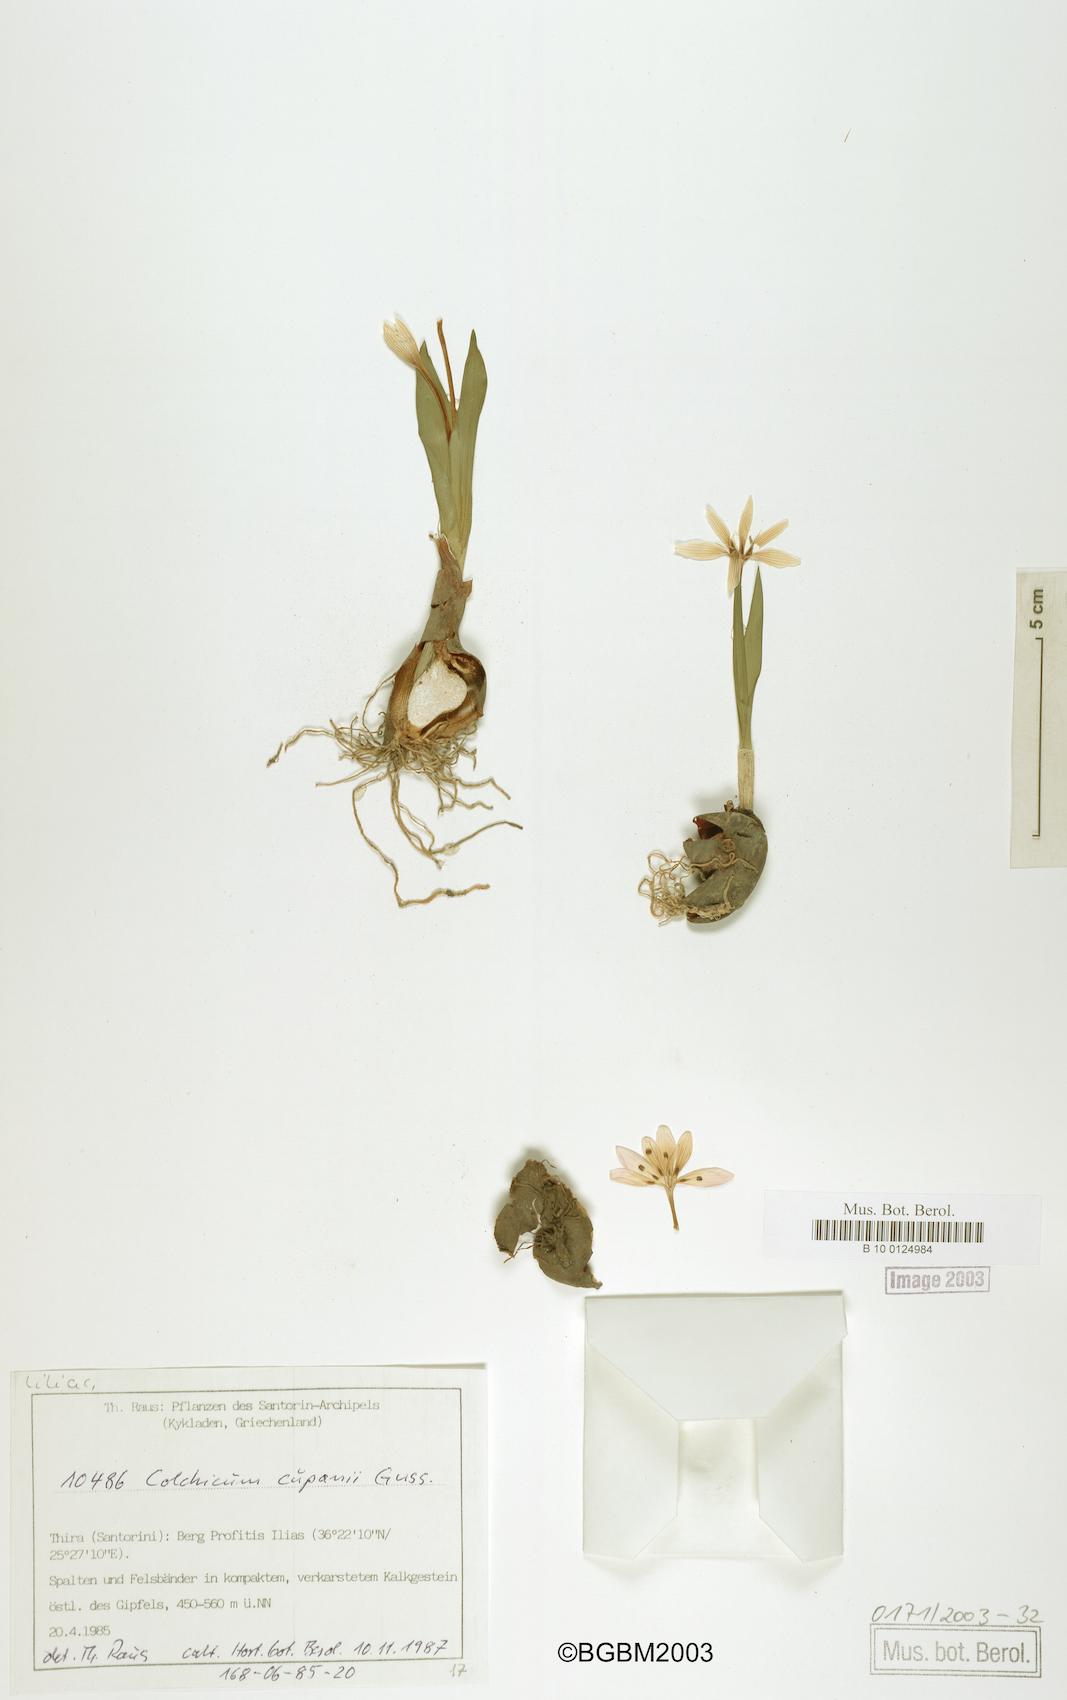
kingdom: Plantae
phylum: Tracheophyta
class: Liliopsida
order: Liliales
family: Colchicaceae
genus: Colchicum
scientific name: Colchicum cupanii
